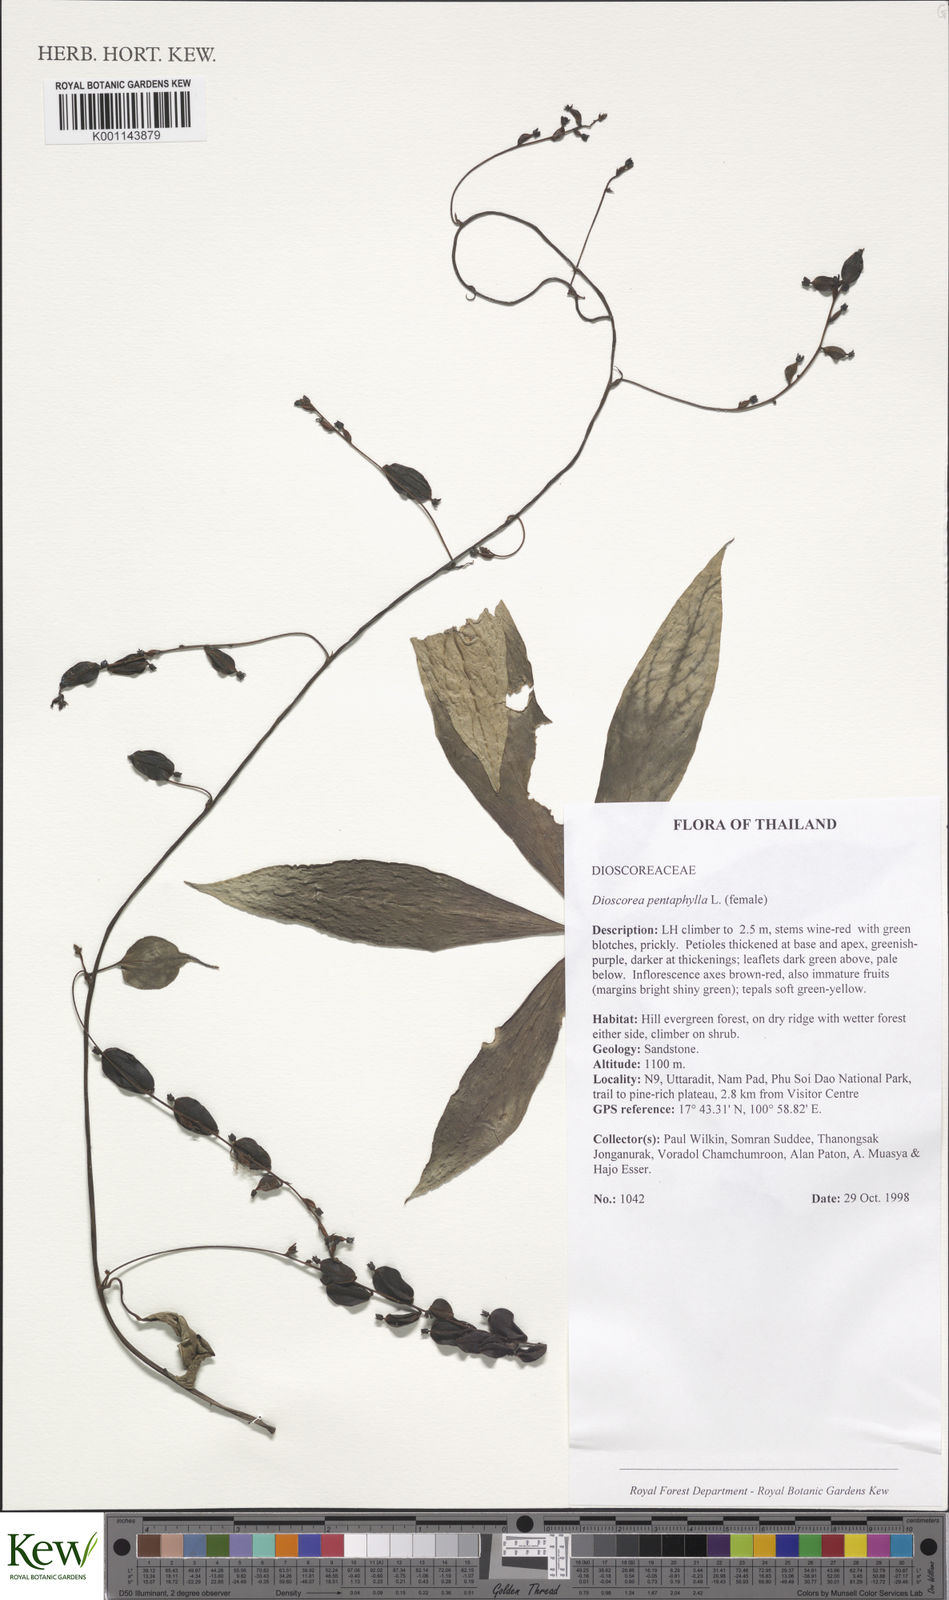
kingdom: Plantae
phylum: Tracheophyta
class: Liliopsida
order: Dioscoreales
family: Dioscoreaceae
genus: Dioscorea
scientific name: Dioscorea pentaphylla
